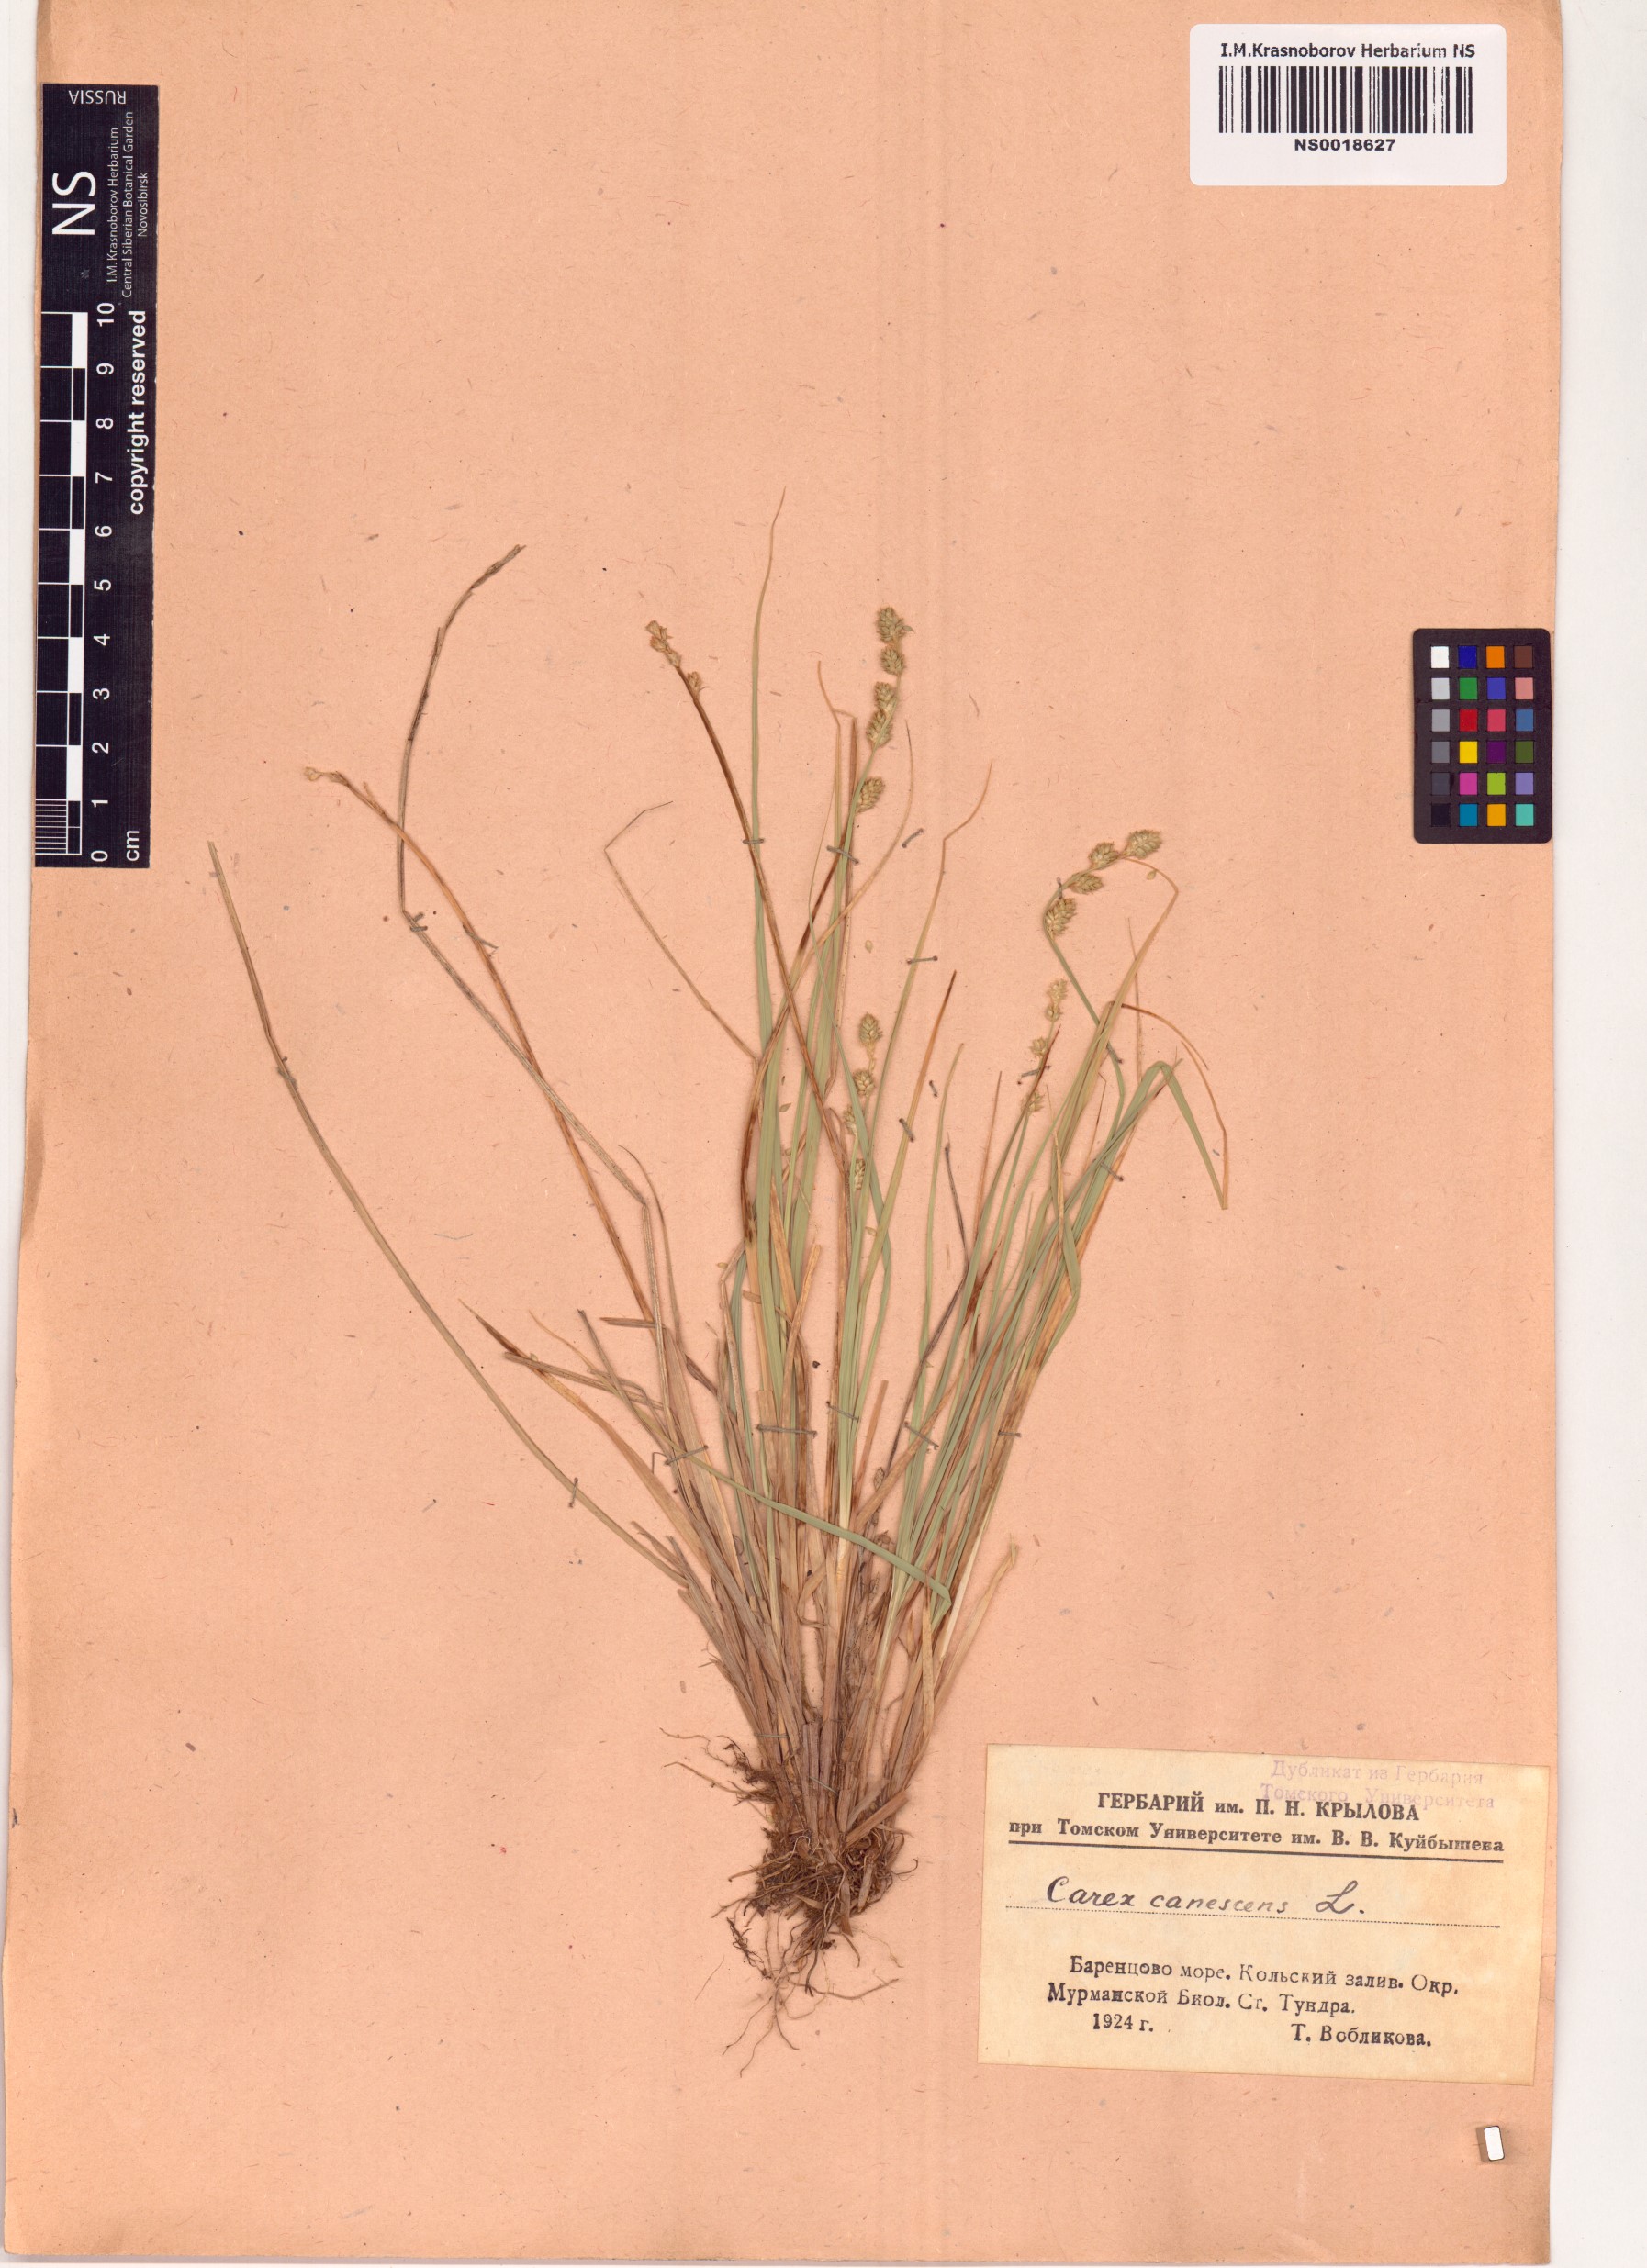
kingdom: Plantae
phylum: Tracheophyta
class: Liliopsida
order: Poales
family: Cyperaceae
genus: Carex
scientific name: Carex canescens
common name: White sedge
